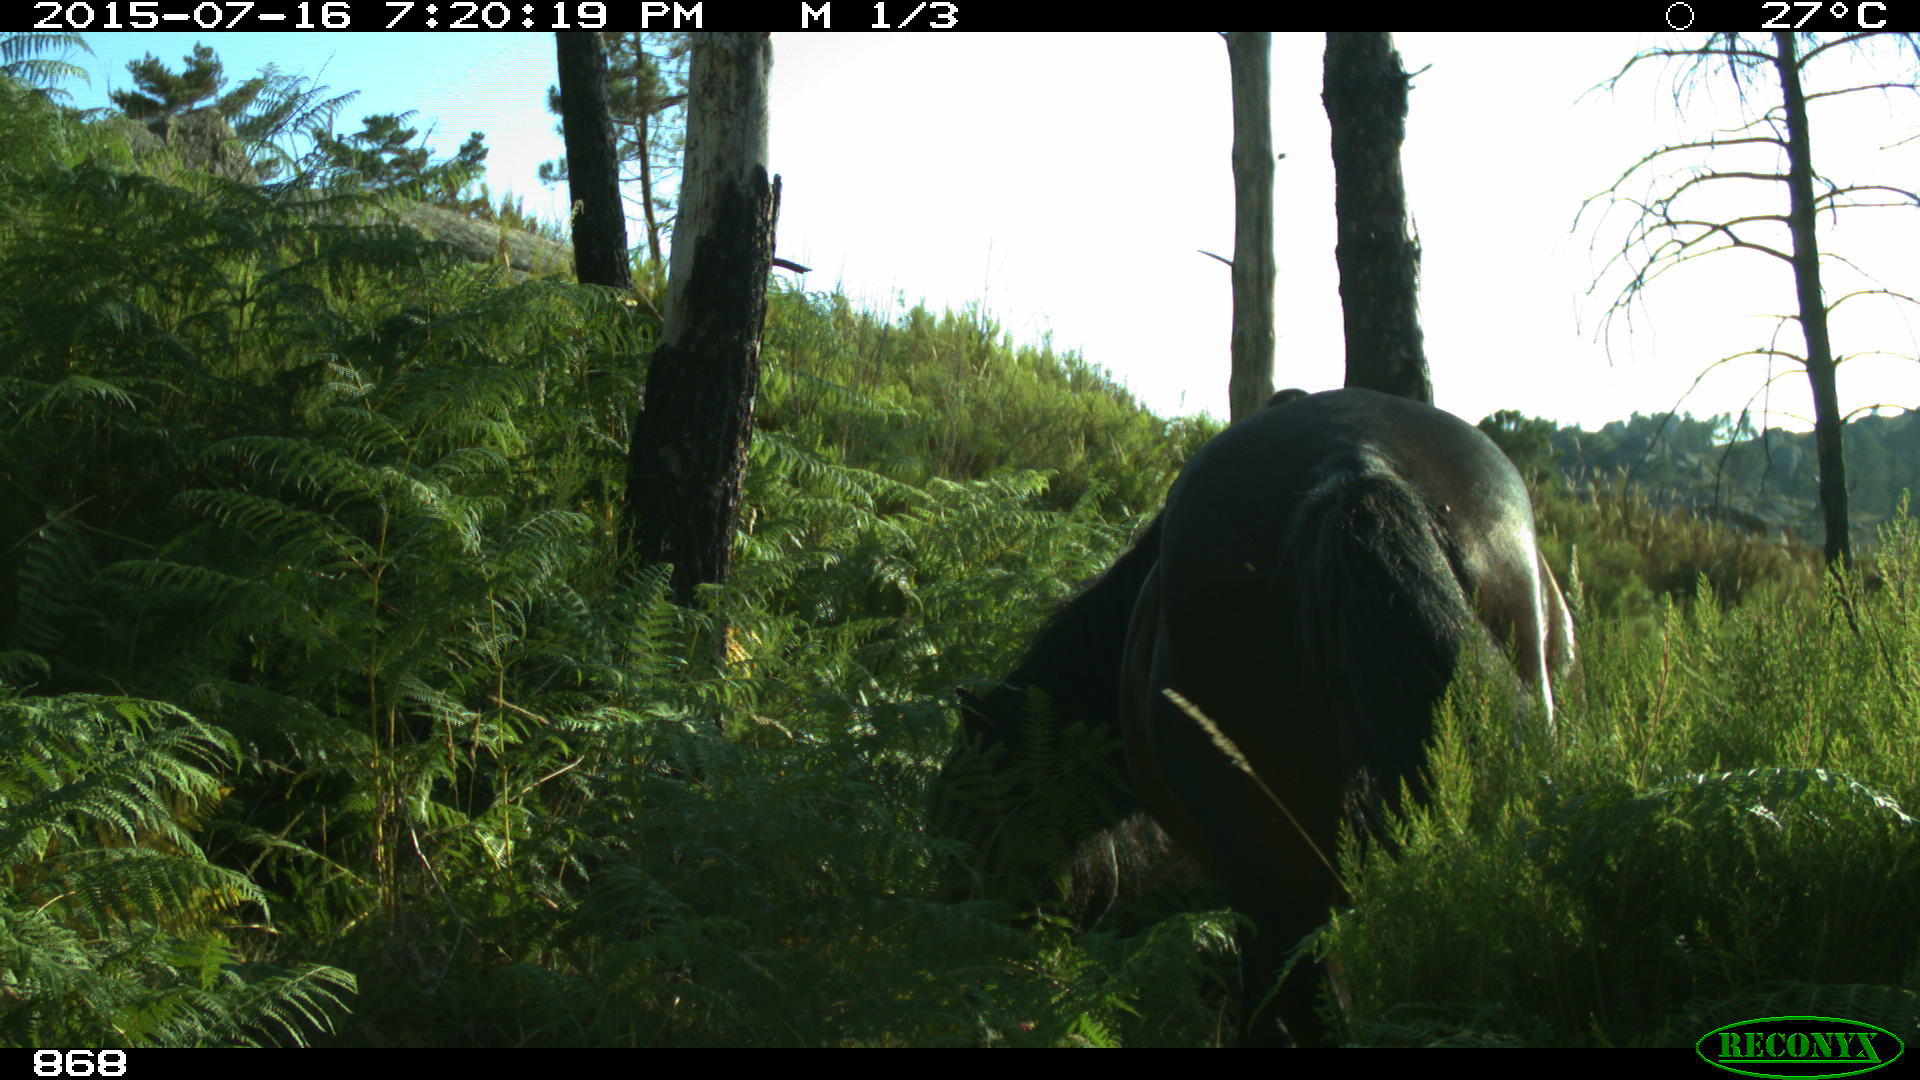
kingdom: Animalia
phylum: Chordata
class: Mammalia
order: Perissodactyla
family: Equidae
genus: Equus
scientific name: Equus caballus
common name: Horse
